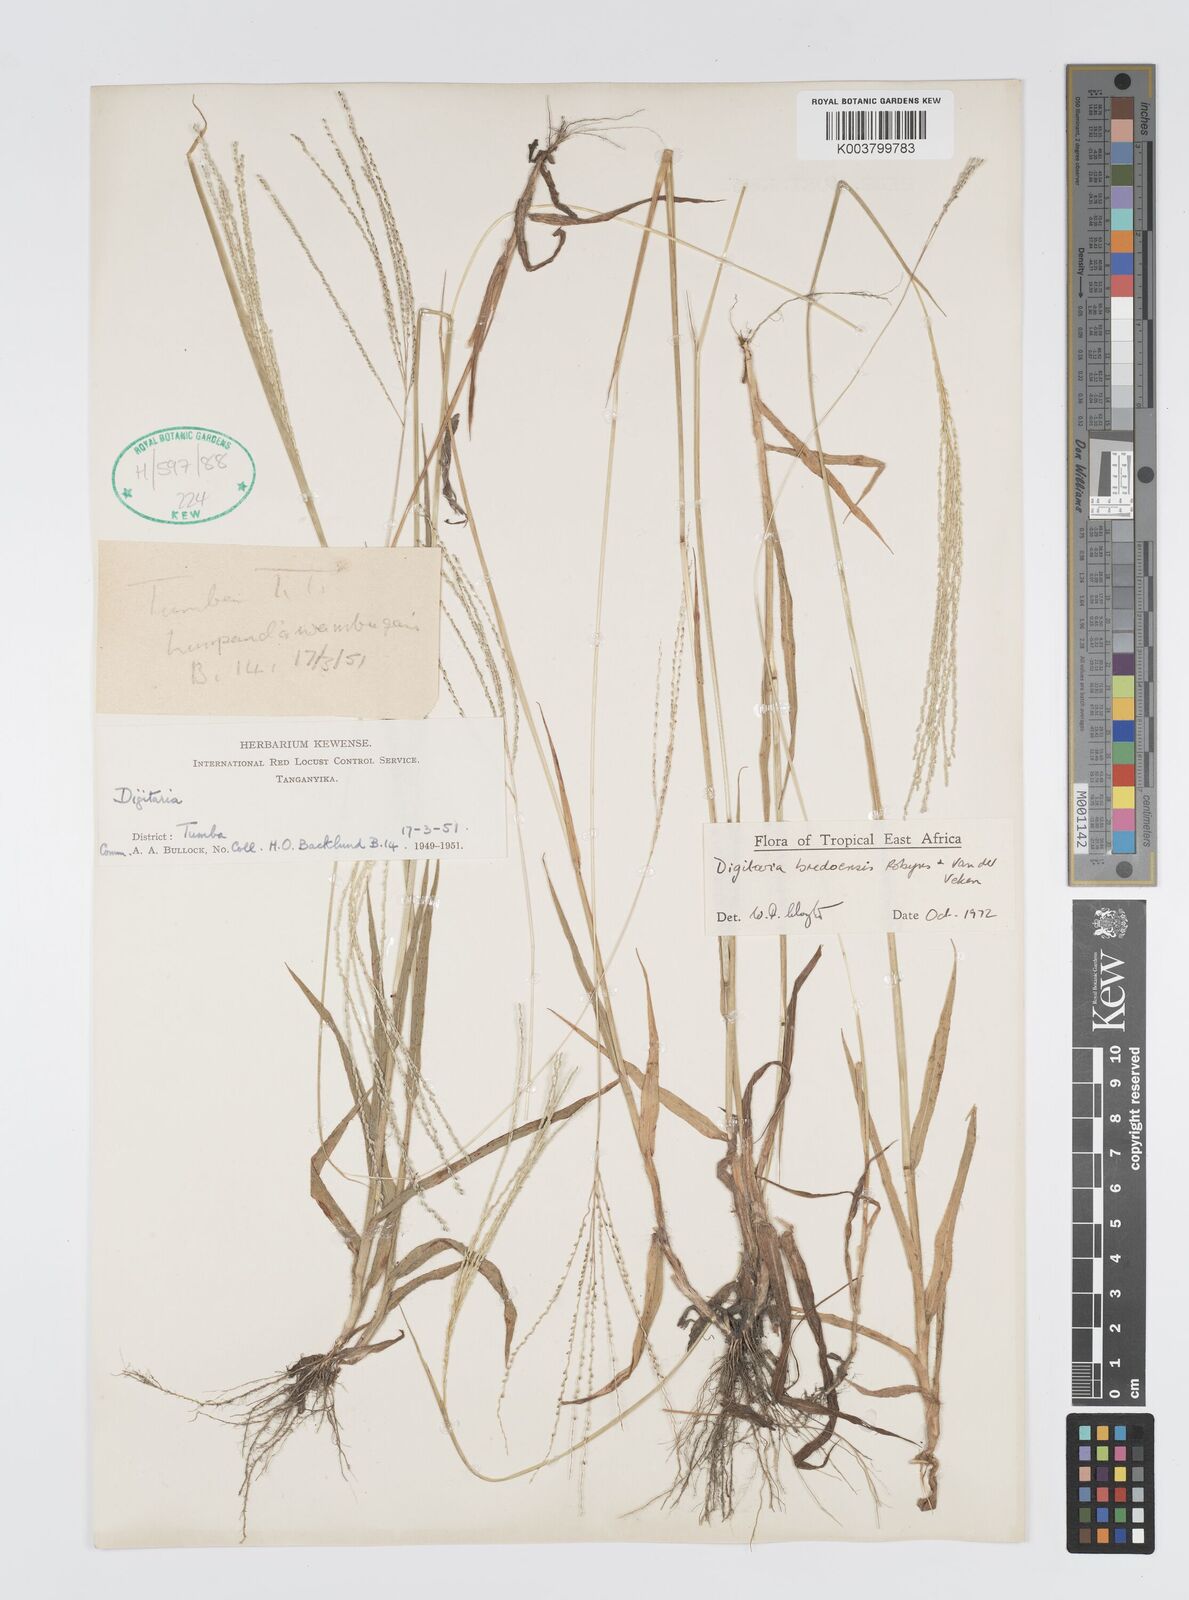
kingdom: Plantae
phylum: Tracheophyta
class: Liliopsida
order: Poales
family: Poaceae
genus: Digitaria
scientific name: Digitaria leptorhachis
